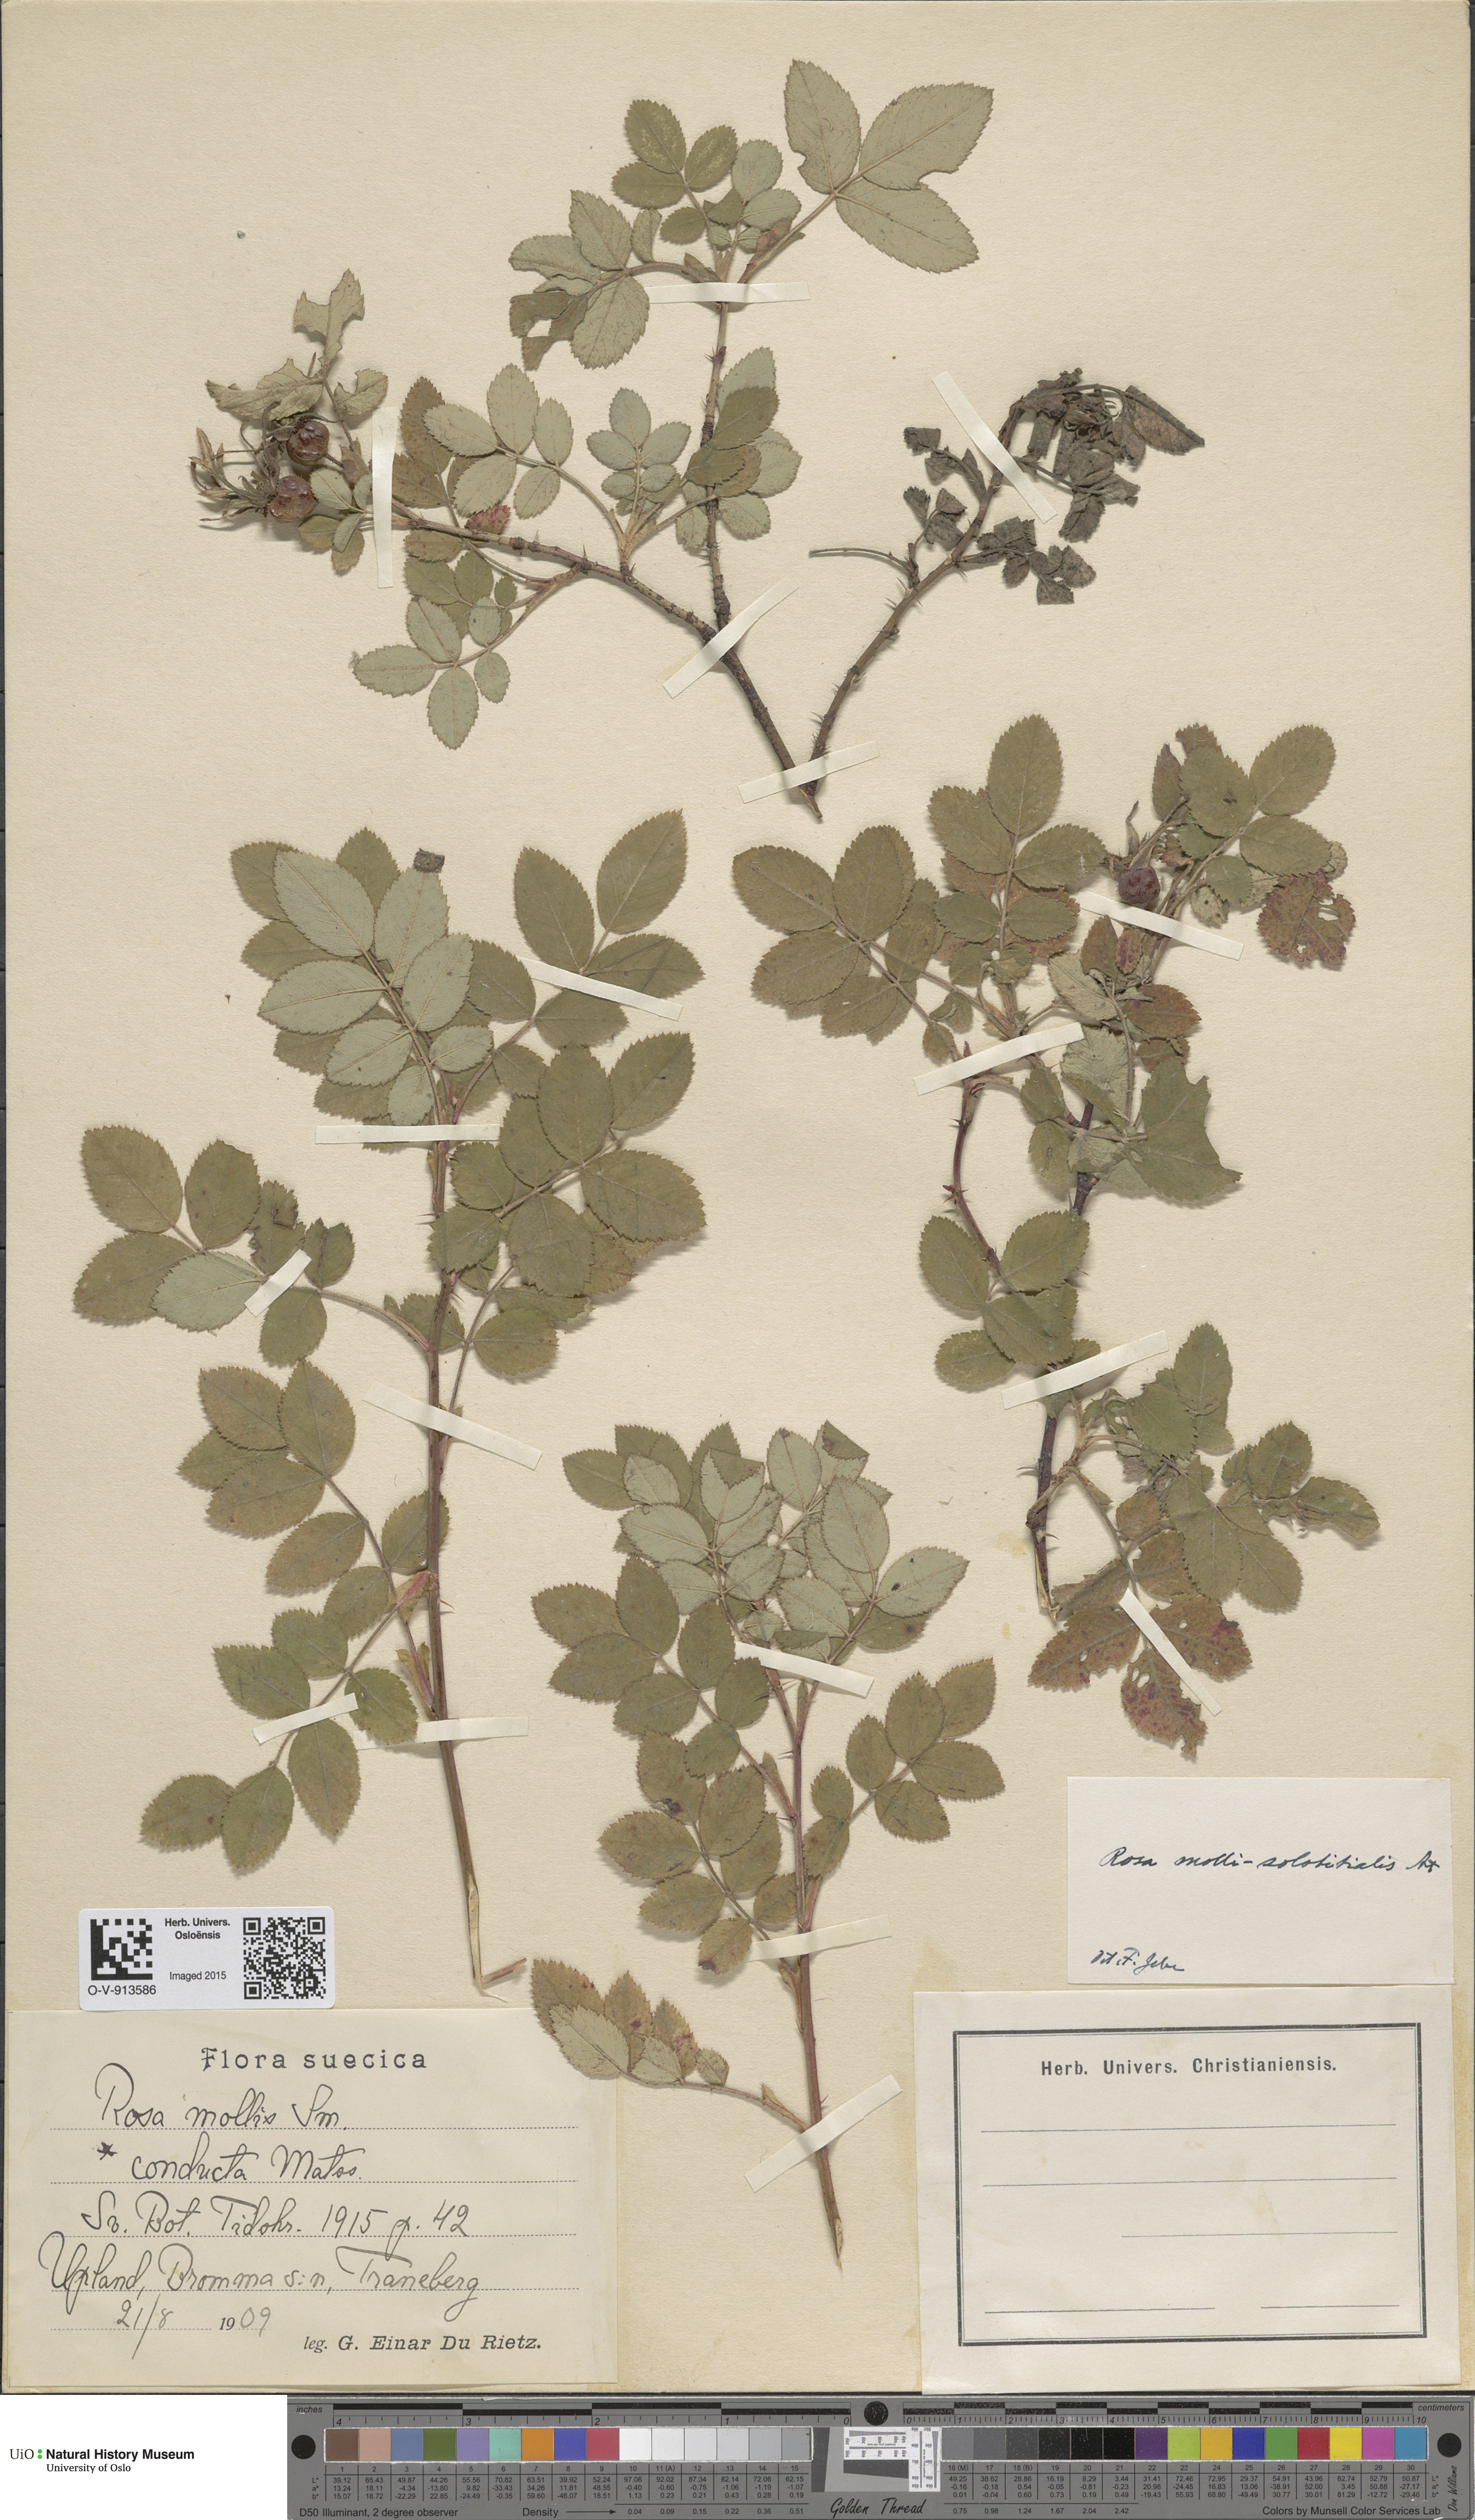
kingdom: Plantae
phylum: Tracheophyta
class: Magnoliopsida
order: Rosales
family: Rosaceae
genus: Rosa
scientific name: Rosa mollis
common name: Rose
